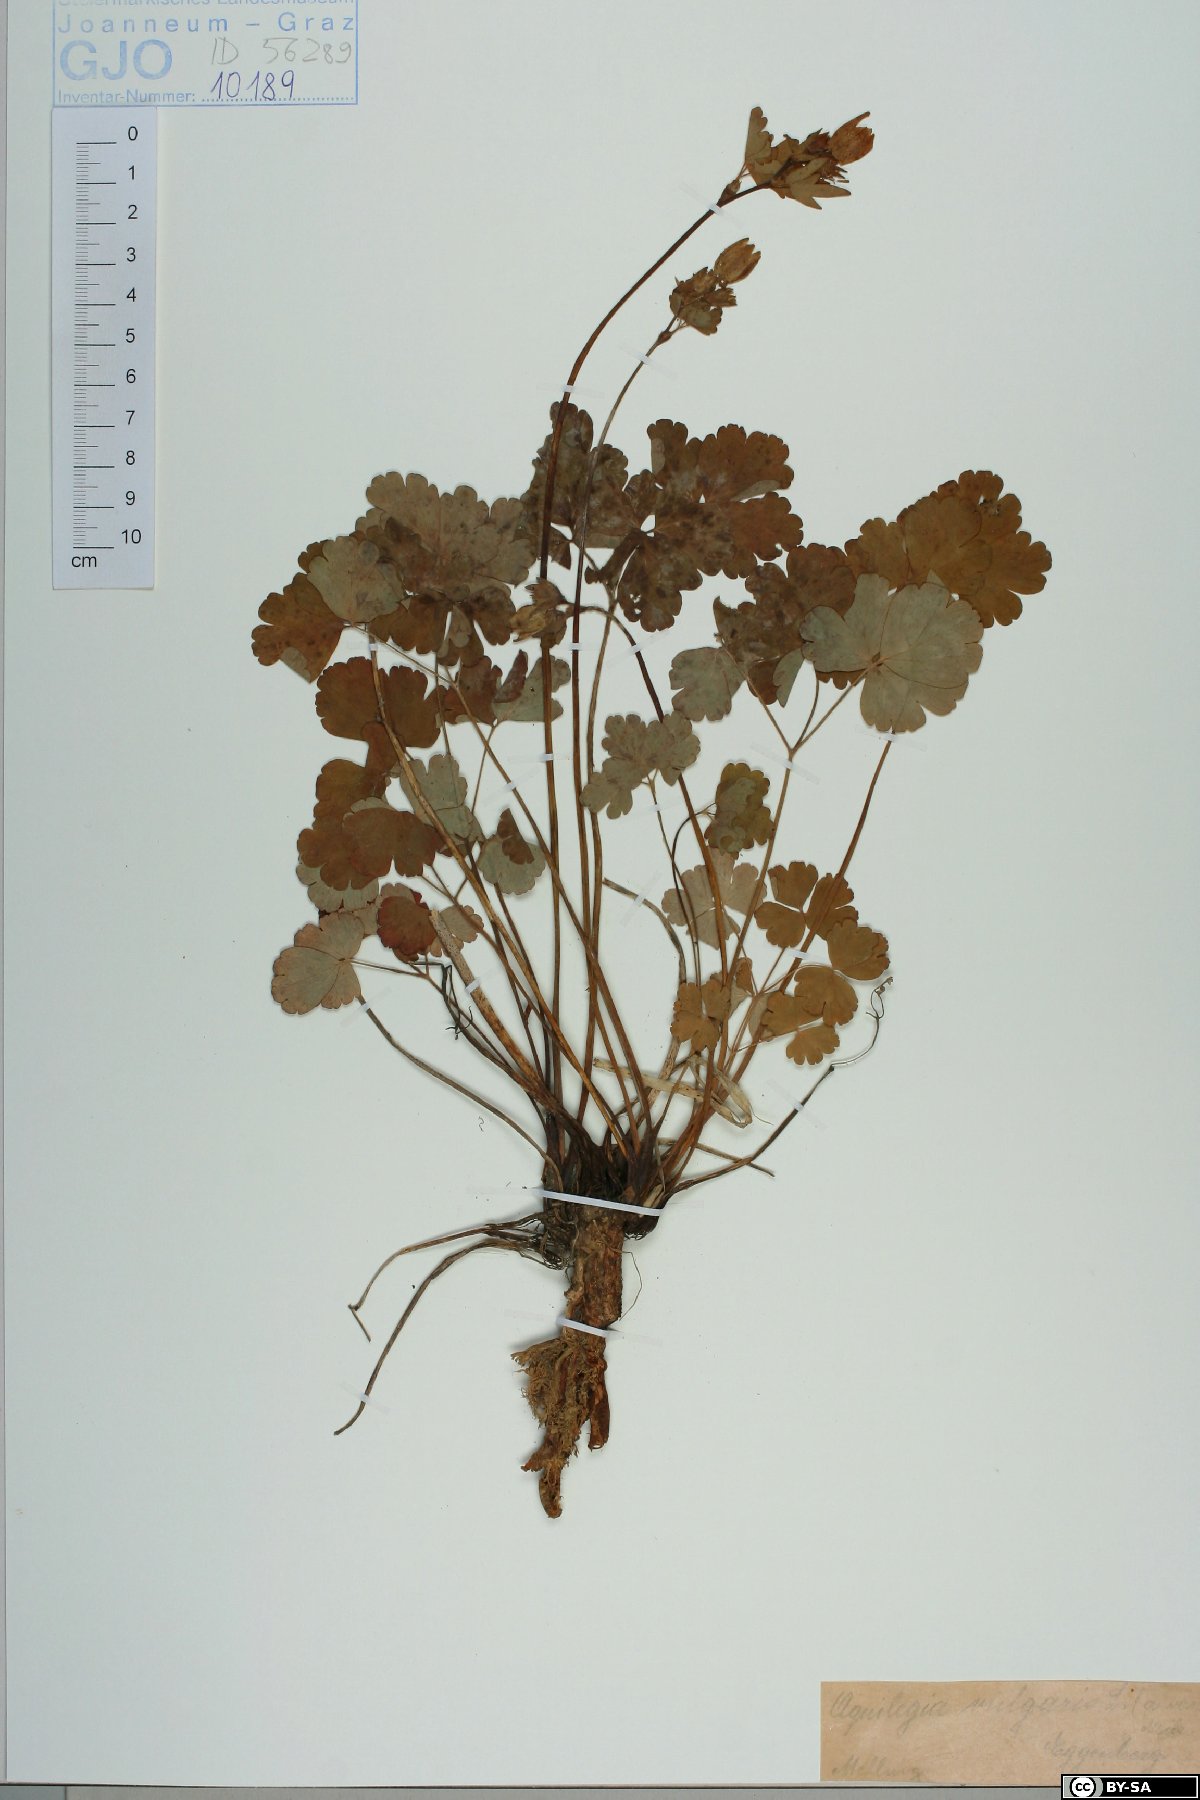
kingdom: Plantae
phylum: Tracheophyta
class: Magnoliopsida
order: Ranunculales
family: Ranunculaceae
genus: Aquilegia
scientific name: Aquilegia vulgaris
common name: Columbine
